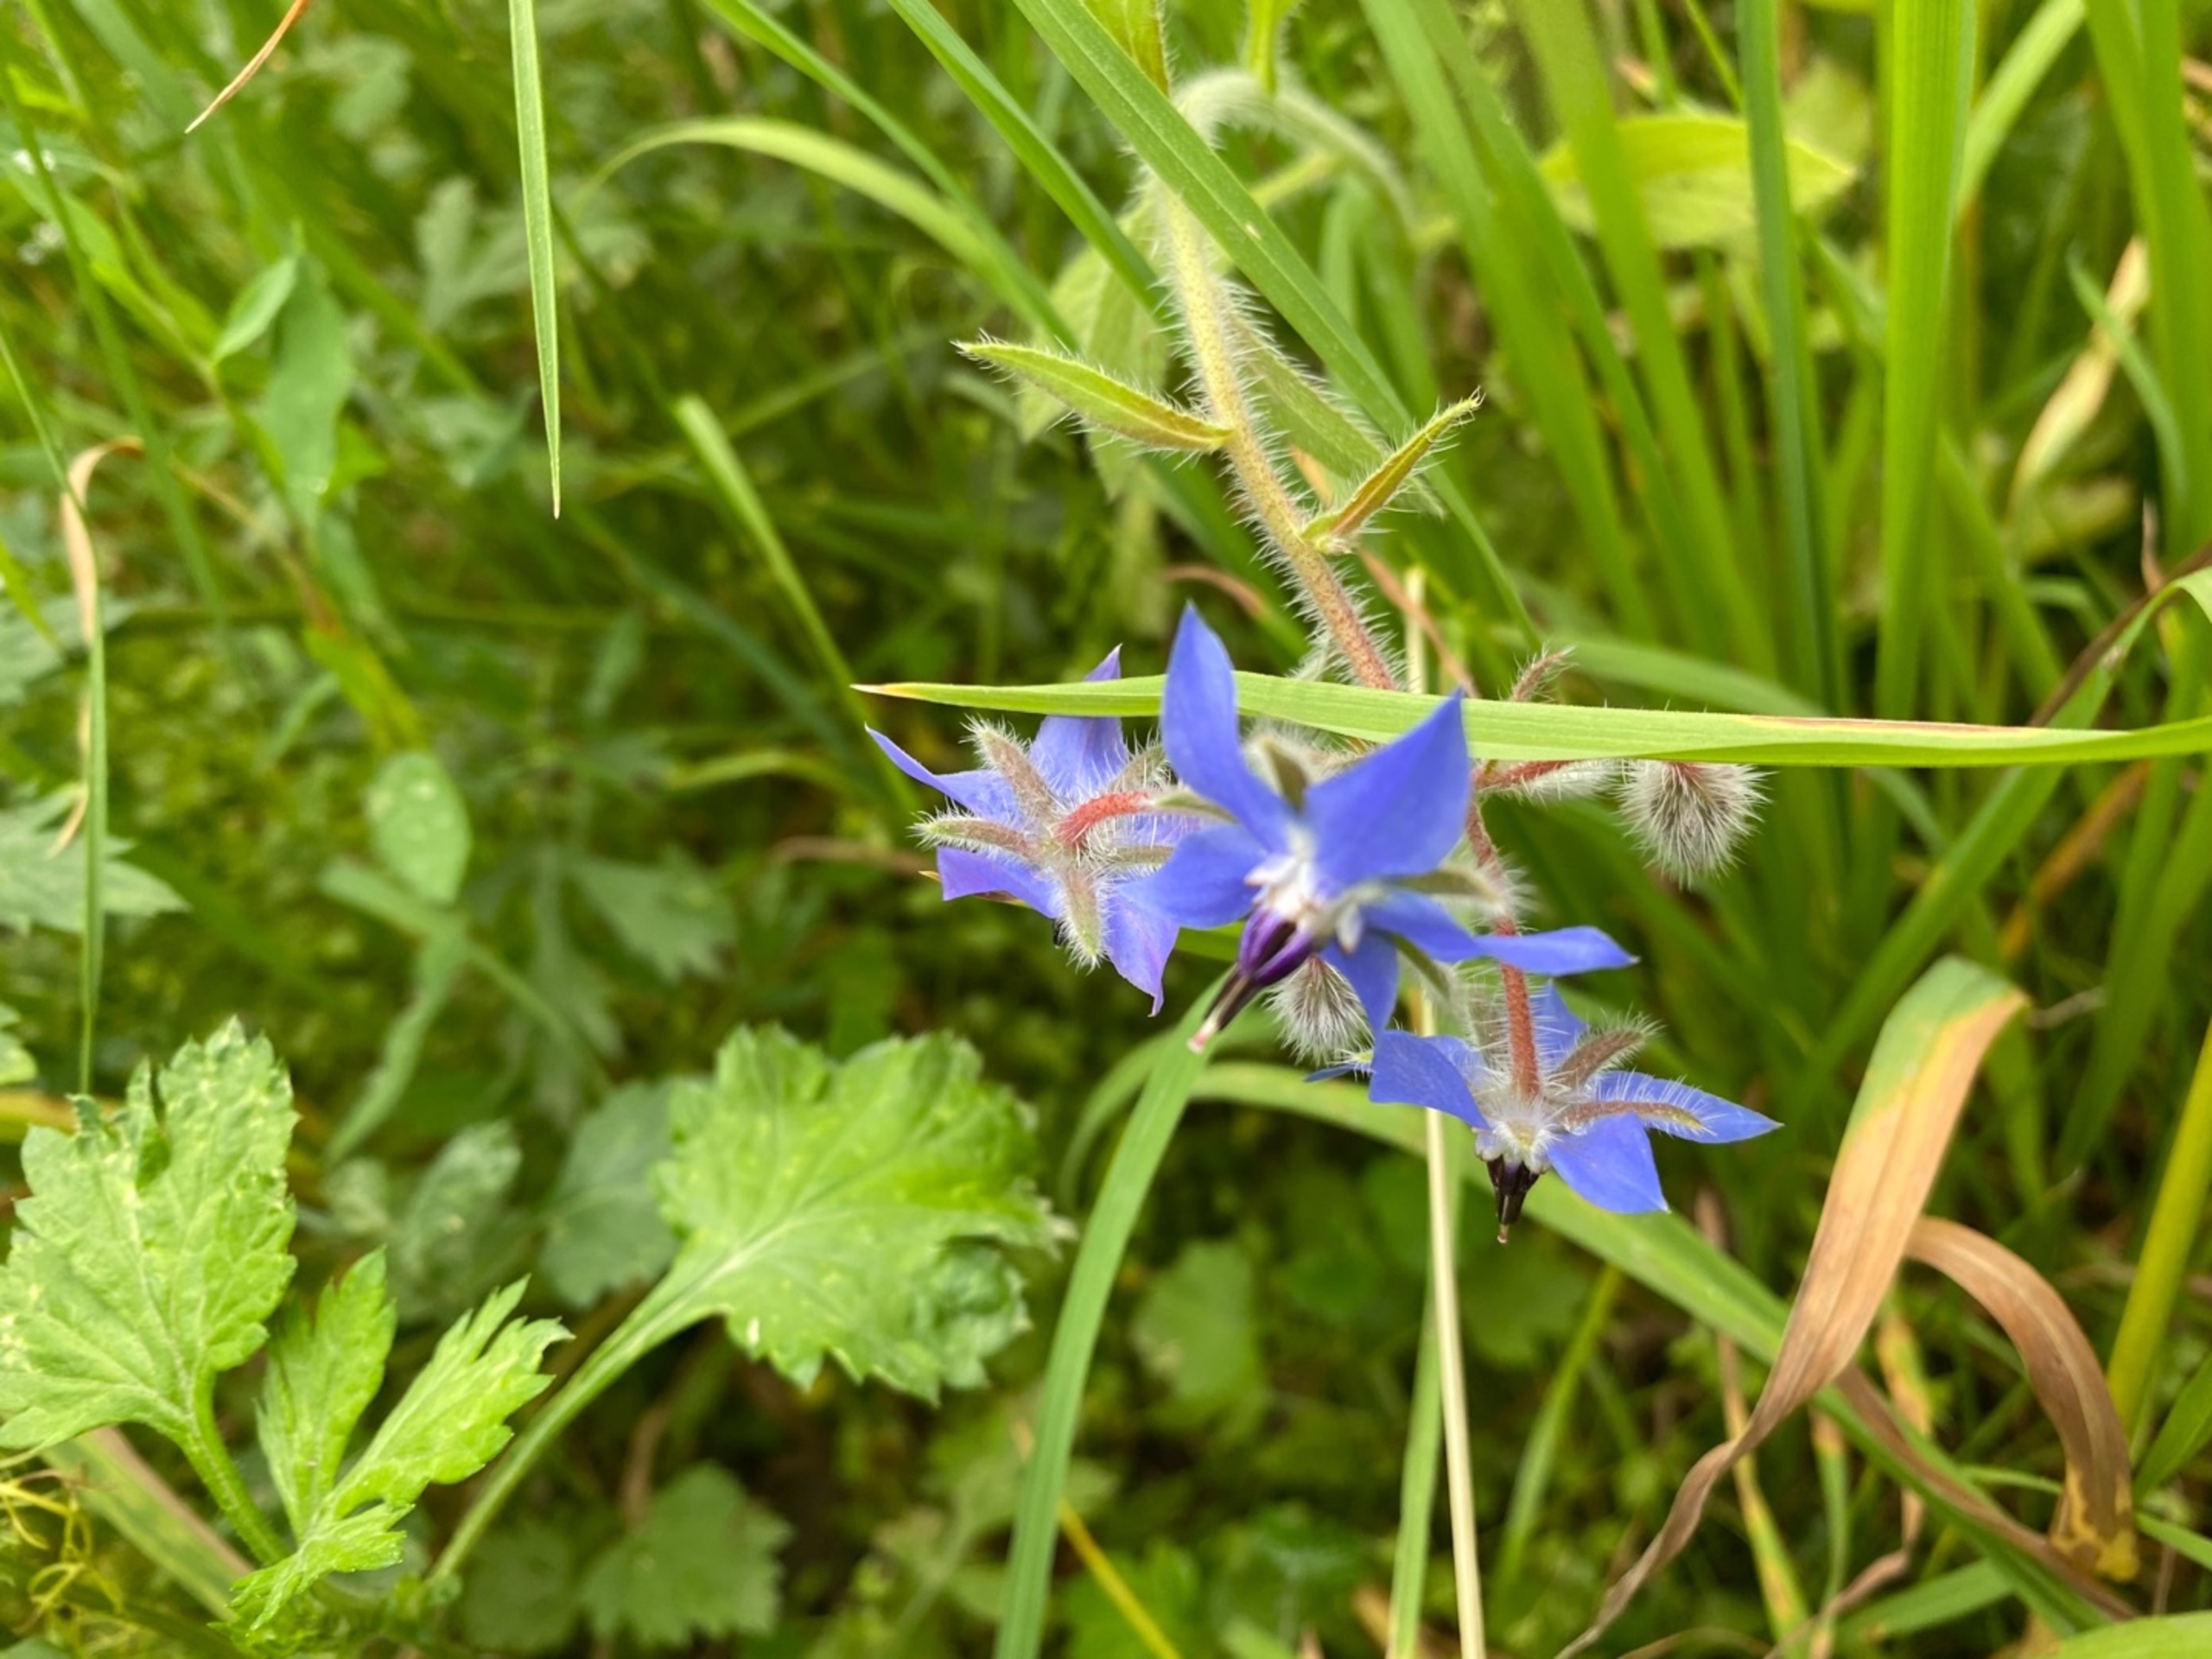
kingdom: Plantae
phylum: Tracheophyta
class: Magnoliopsida
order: Boraginales
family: Boraginaceae
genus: Borago
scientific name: Borago officinalis
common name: Hjulkrone
